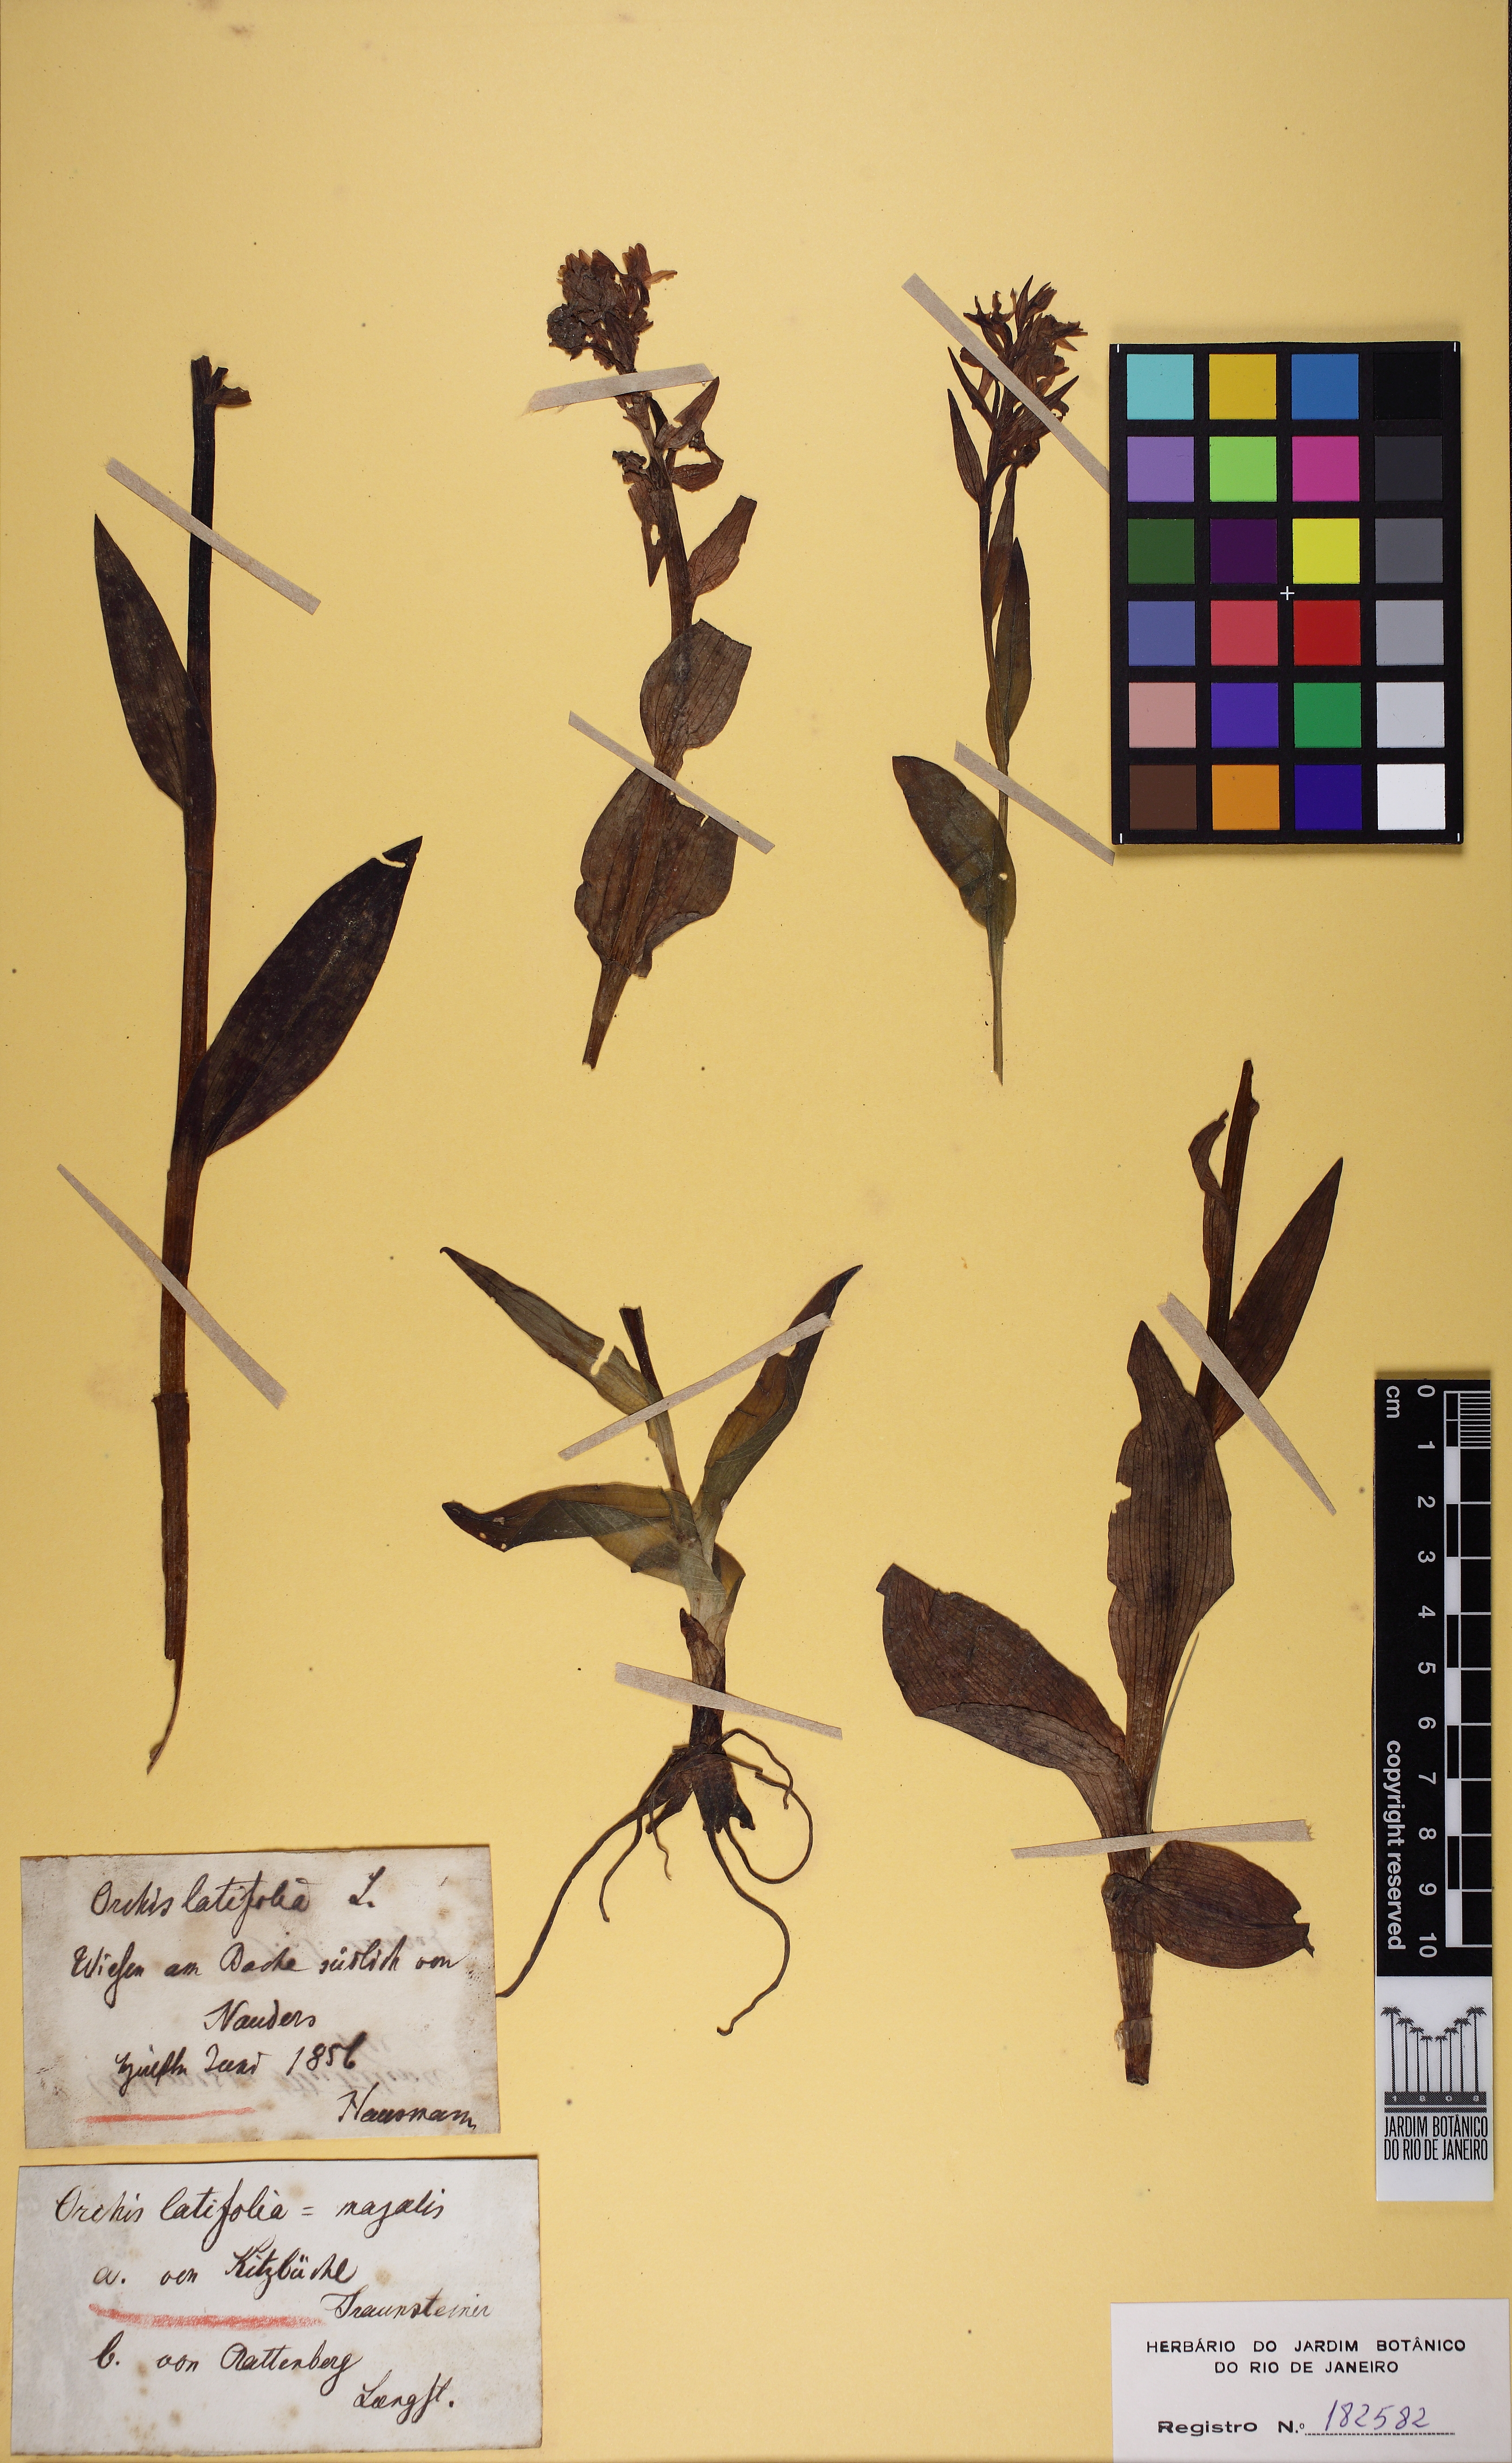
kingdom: Plantae
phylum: Tracheophyta
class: Liliopsida
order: Asparagales
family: Orchidaceae
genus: Dactylorhiza
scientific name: Dactylorhiza incarnata
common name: Early marsh-orchid
